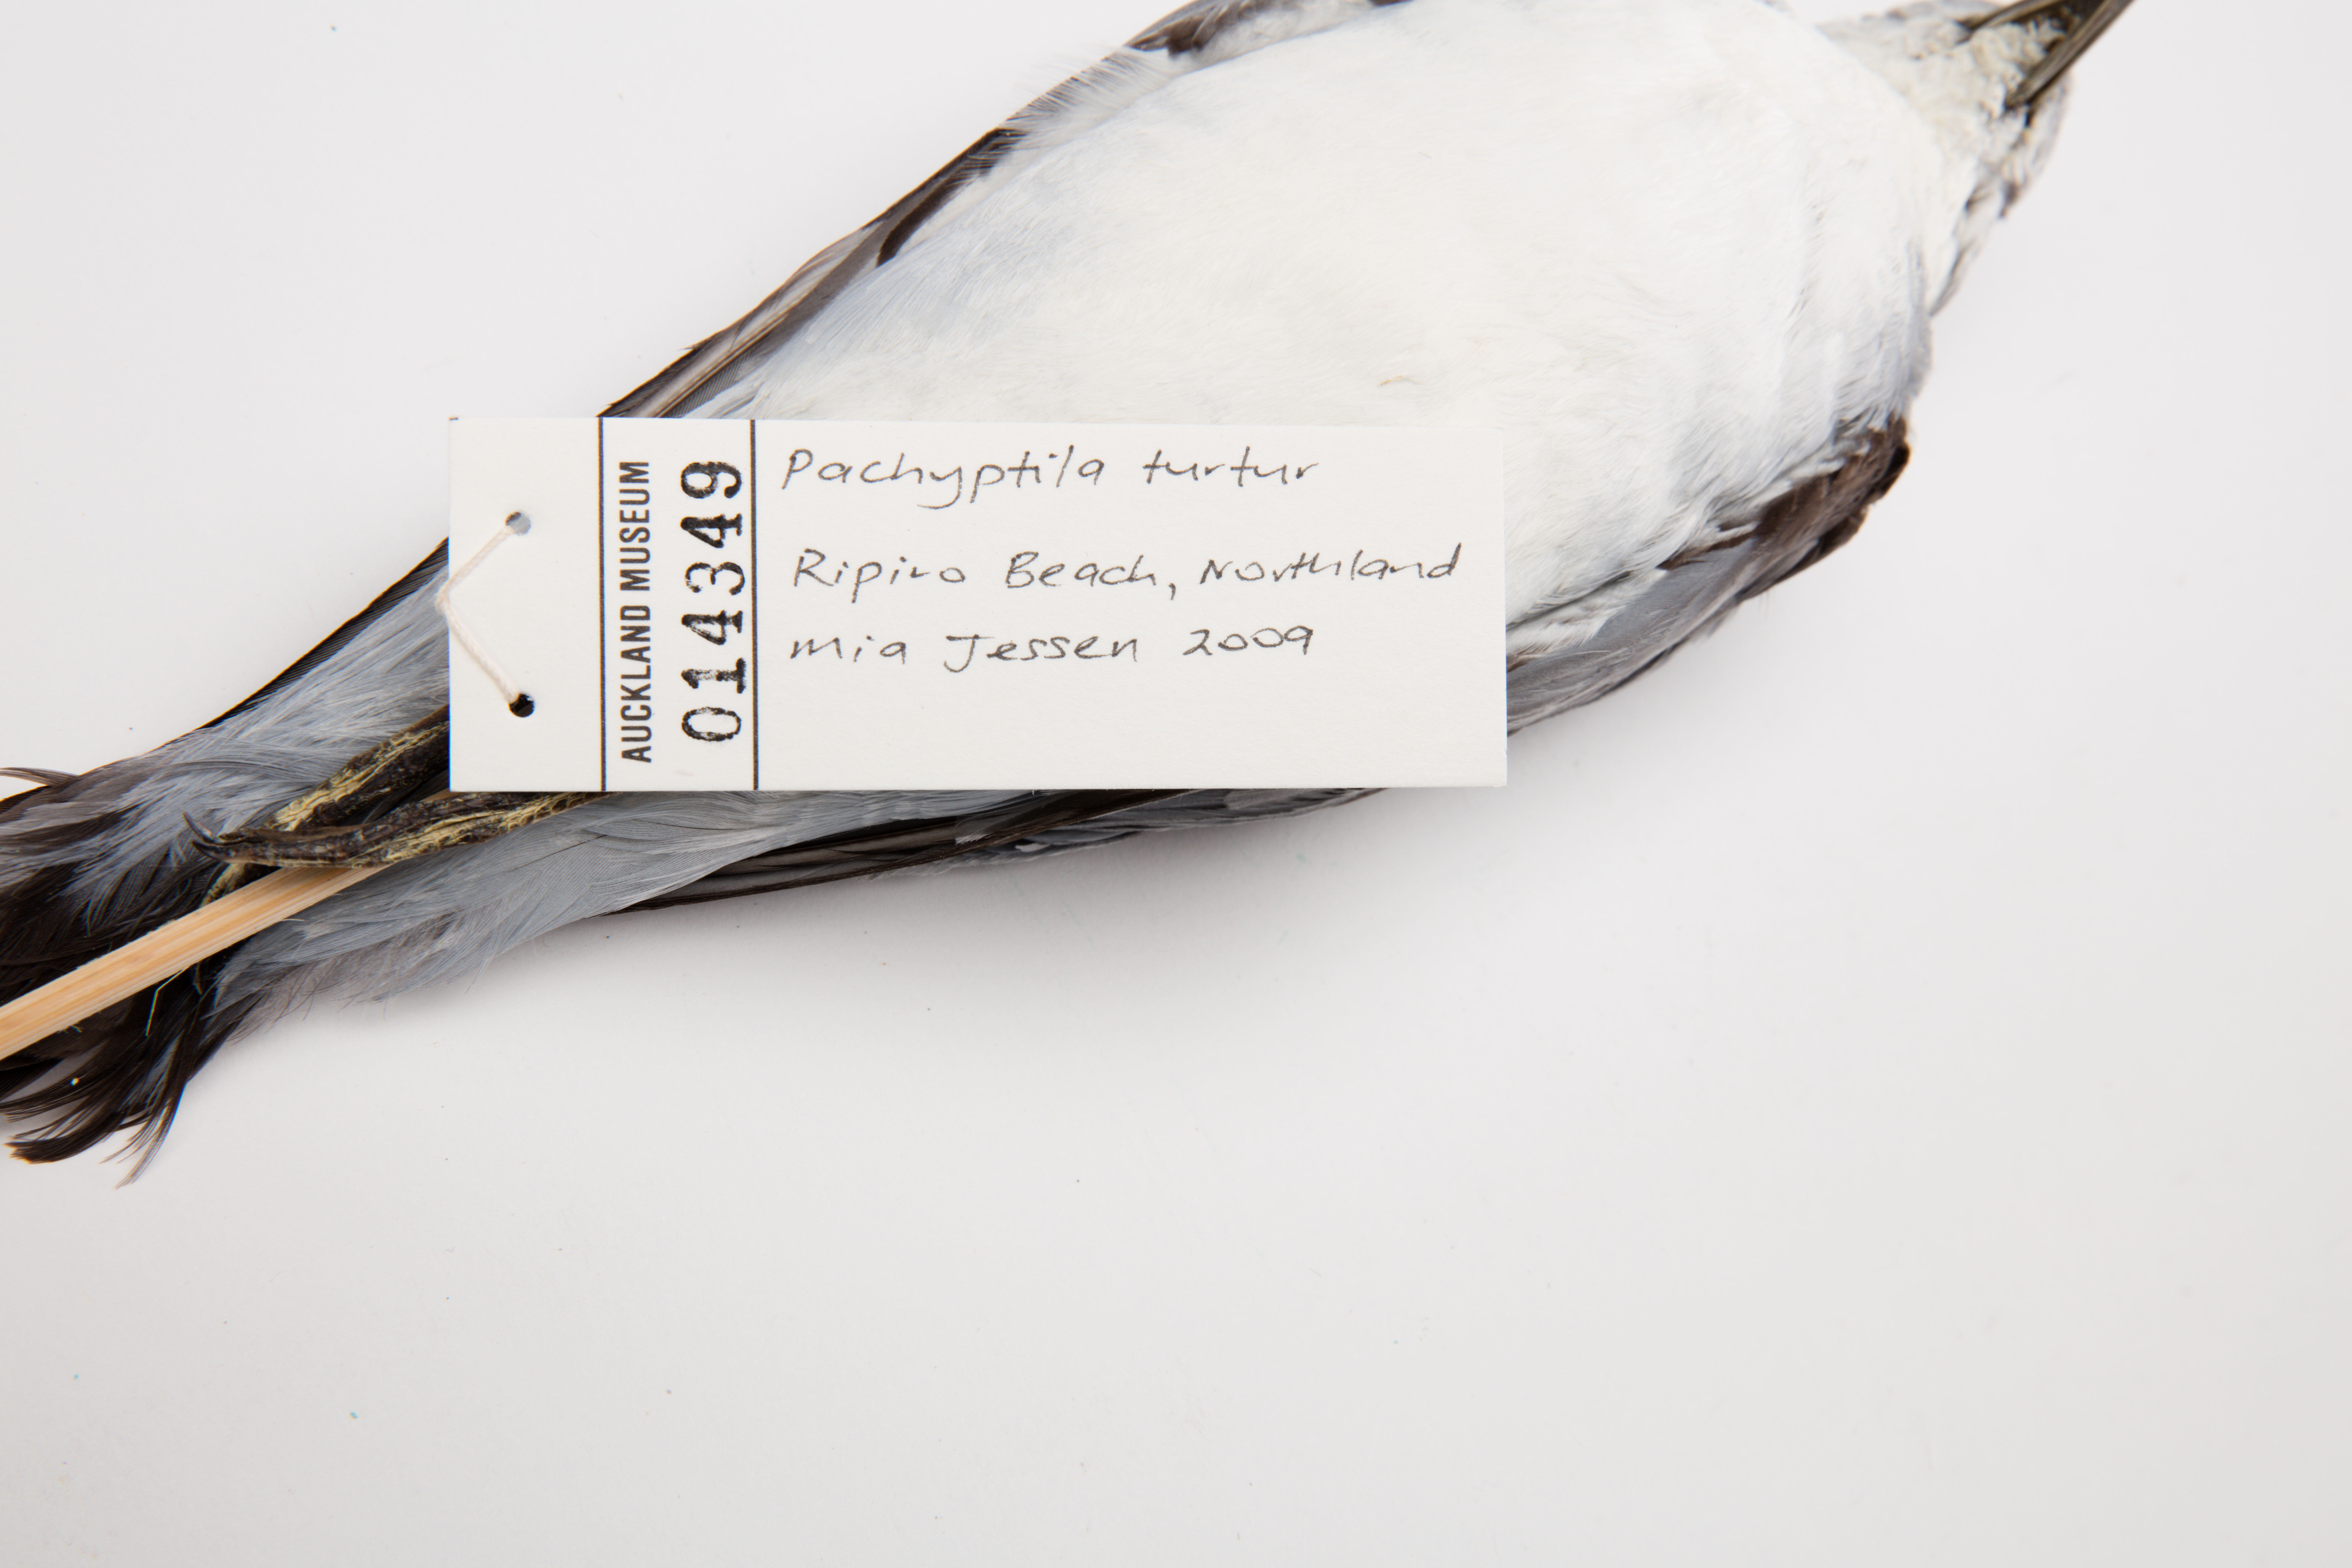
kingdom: Animalia
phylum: Chordata
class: Aves
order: Procellariiformes
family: Procellariidae
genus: Pachyptila
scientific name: Pachyptila turtur
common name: Fairy prion
